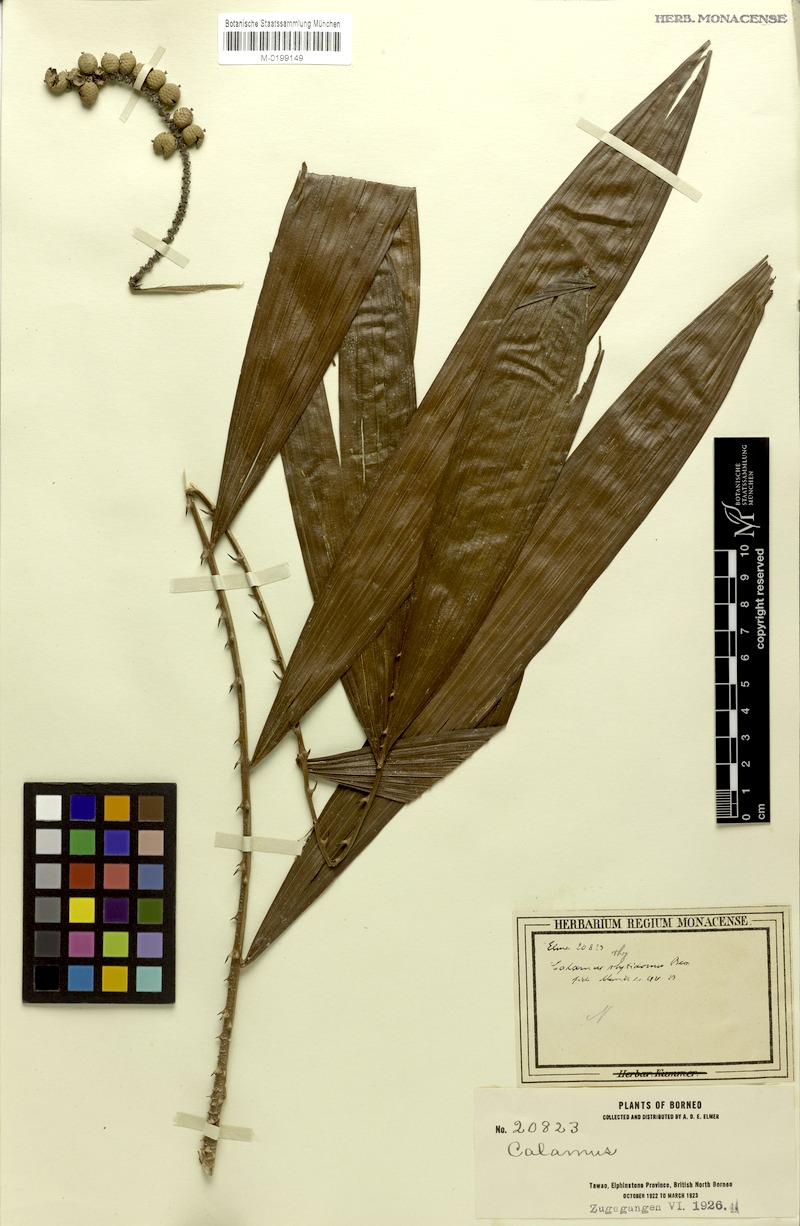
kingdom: Plantae
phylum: Tracheophyta
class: Liliopsida
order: Arecales
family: Arecaceae
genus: Calamus
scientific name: Calamus zonatus
